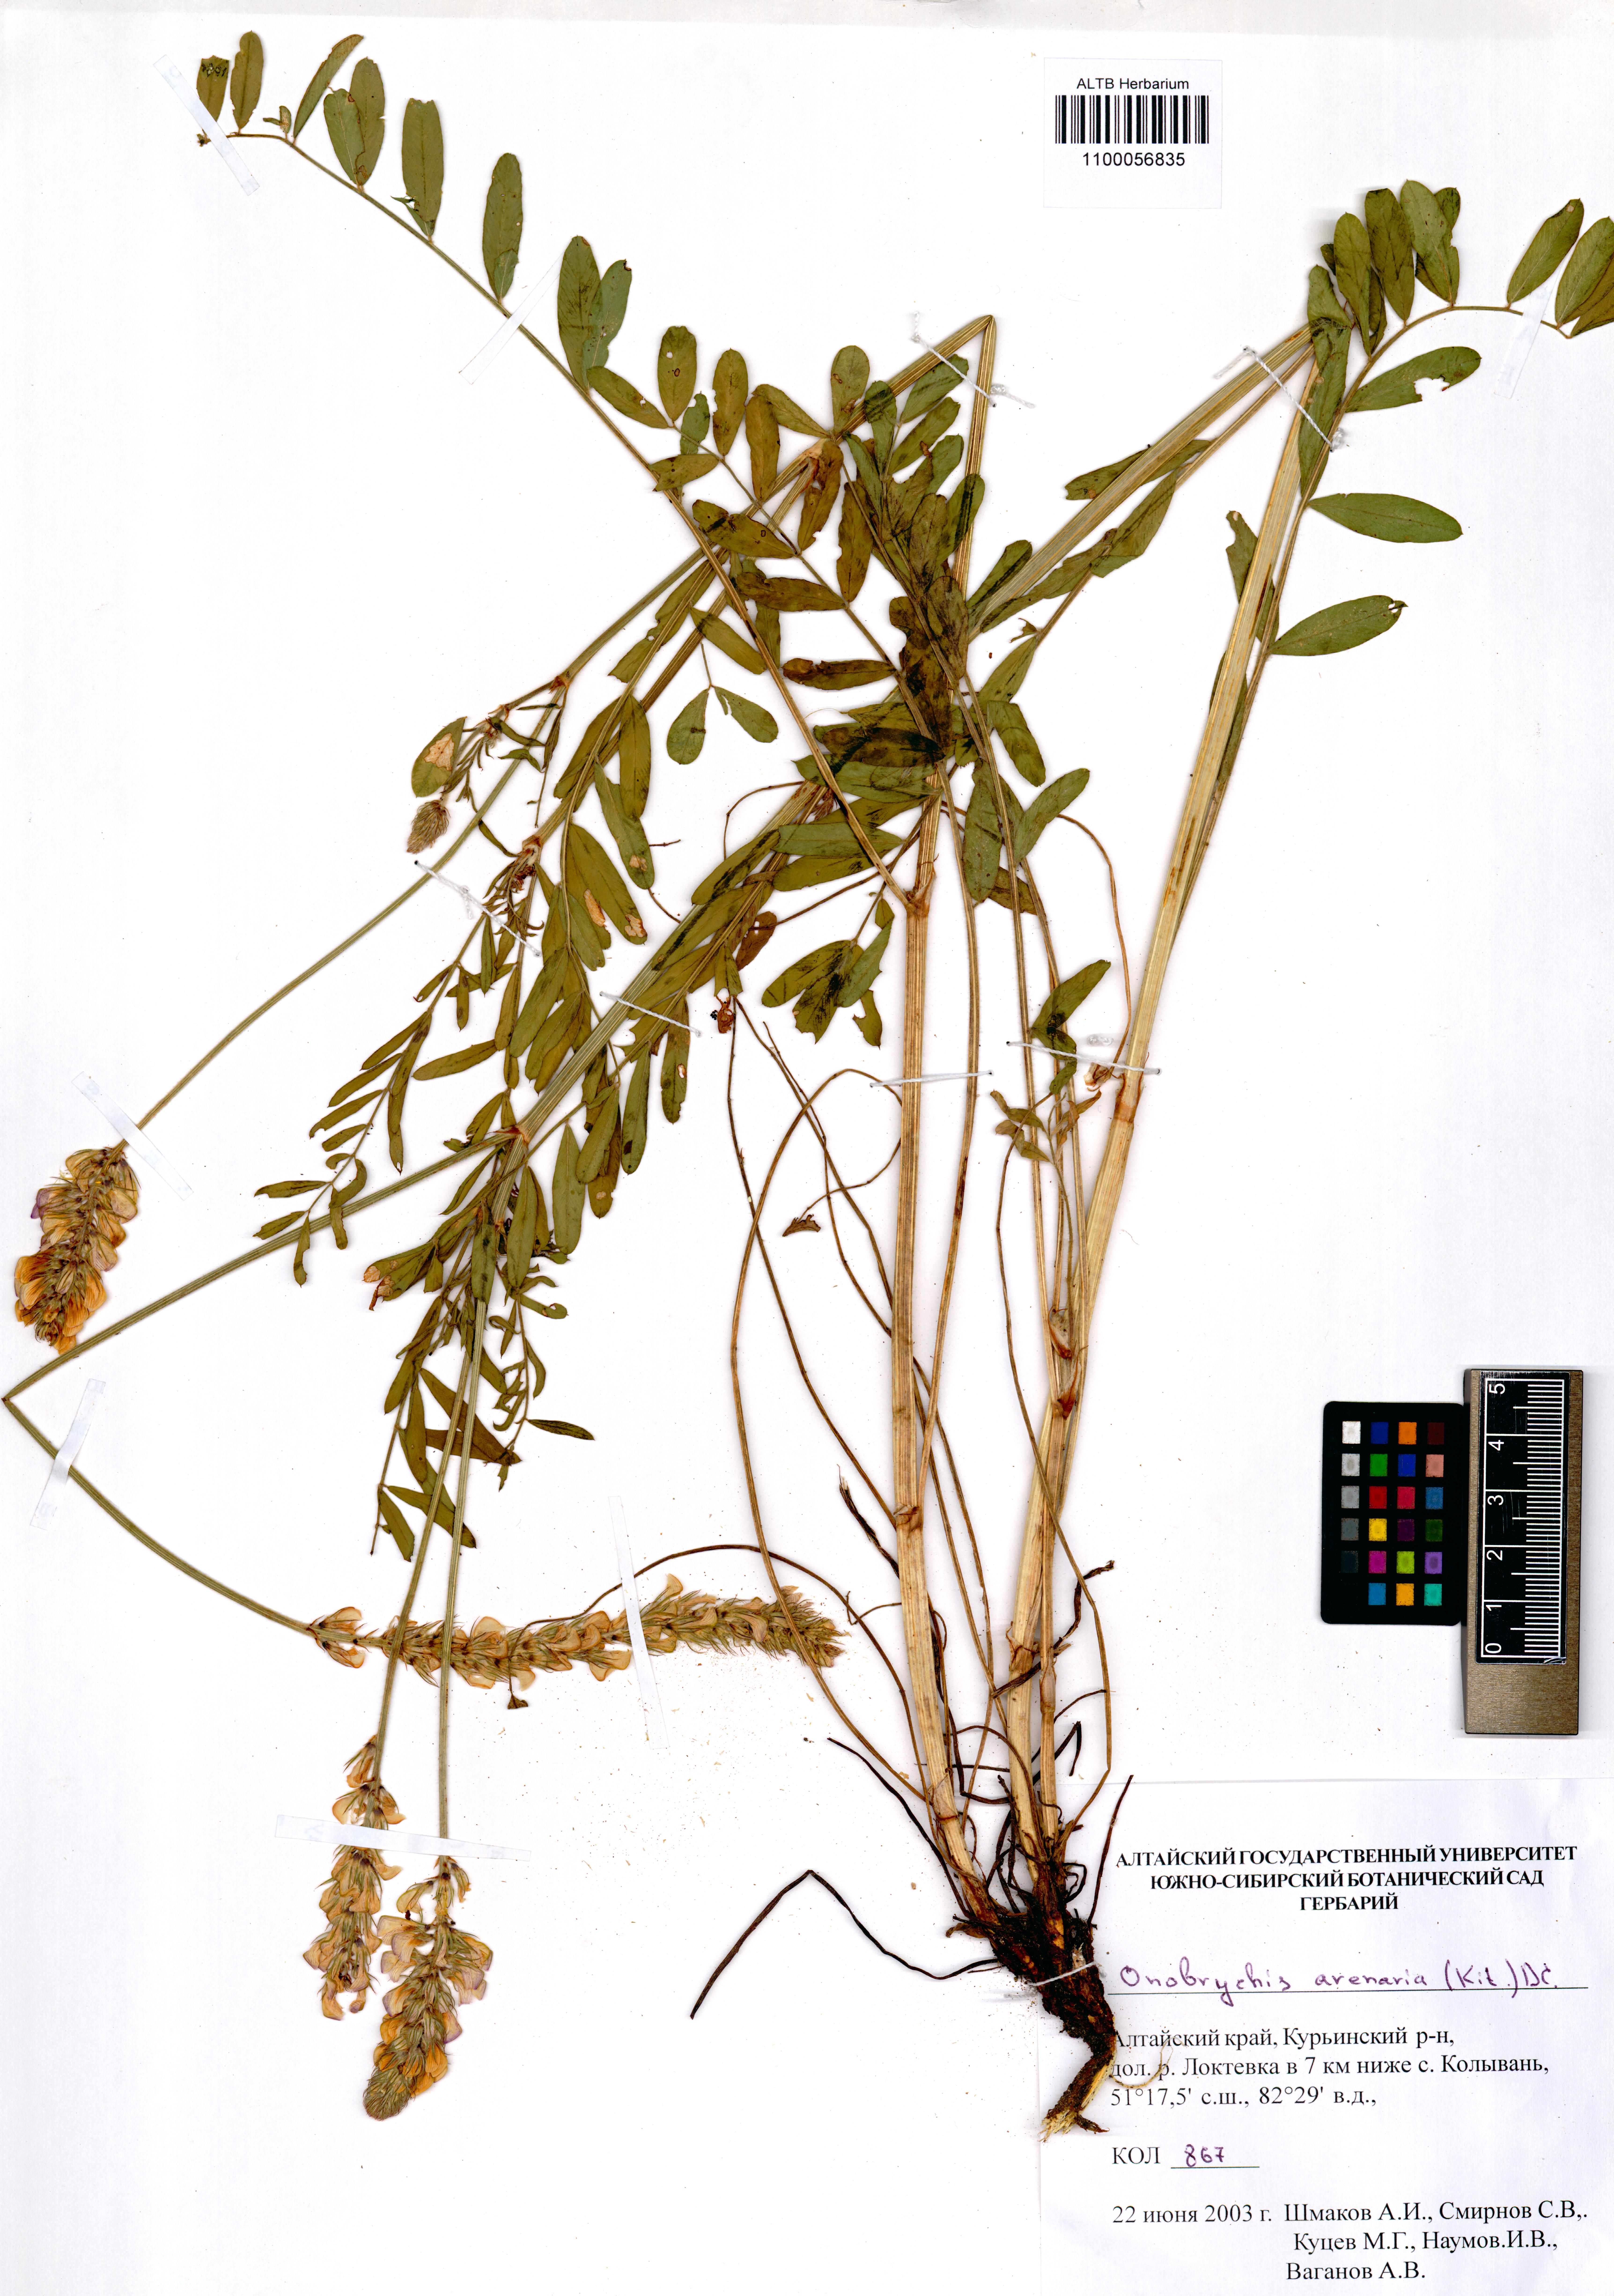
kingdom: Plantae
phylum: Tracheophyta
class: Magnoliopsida
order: Fabales
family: Fabaceae
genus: Onobrychis
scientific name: Onobrychis arenaria
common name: Sand esparcet
